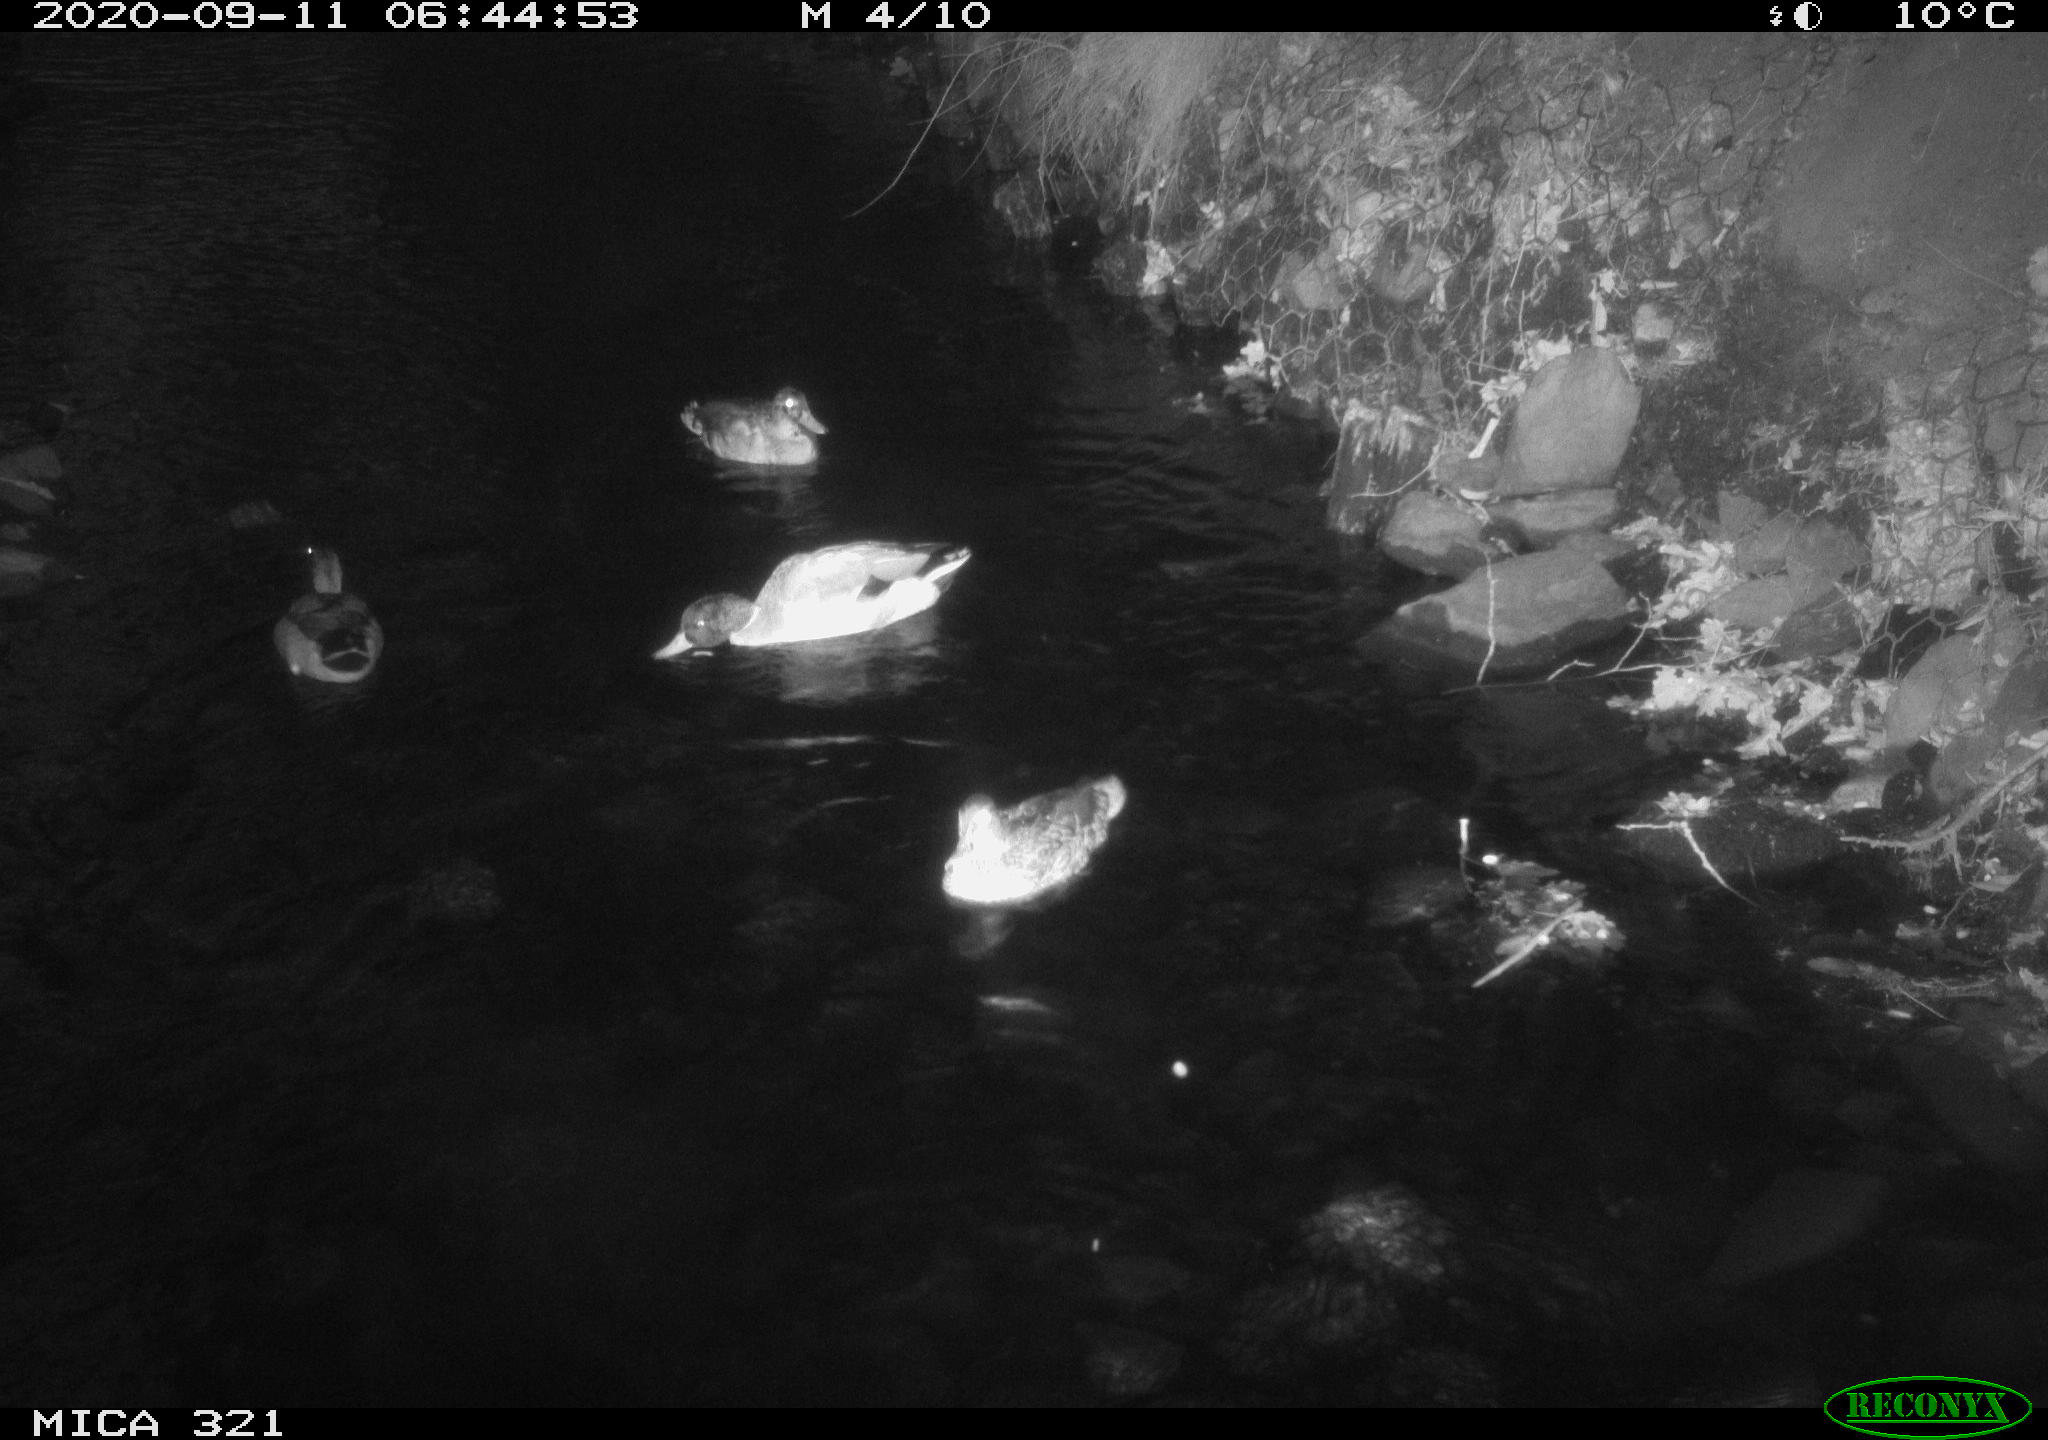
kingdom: Animalia
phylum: Chordata
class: Aves
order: Anseriformes
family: Anatidae
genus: Anas
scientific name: Anas platyrhynchos
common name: Mallard
